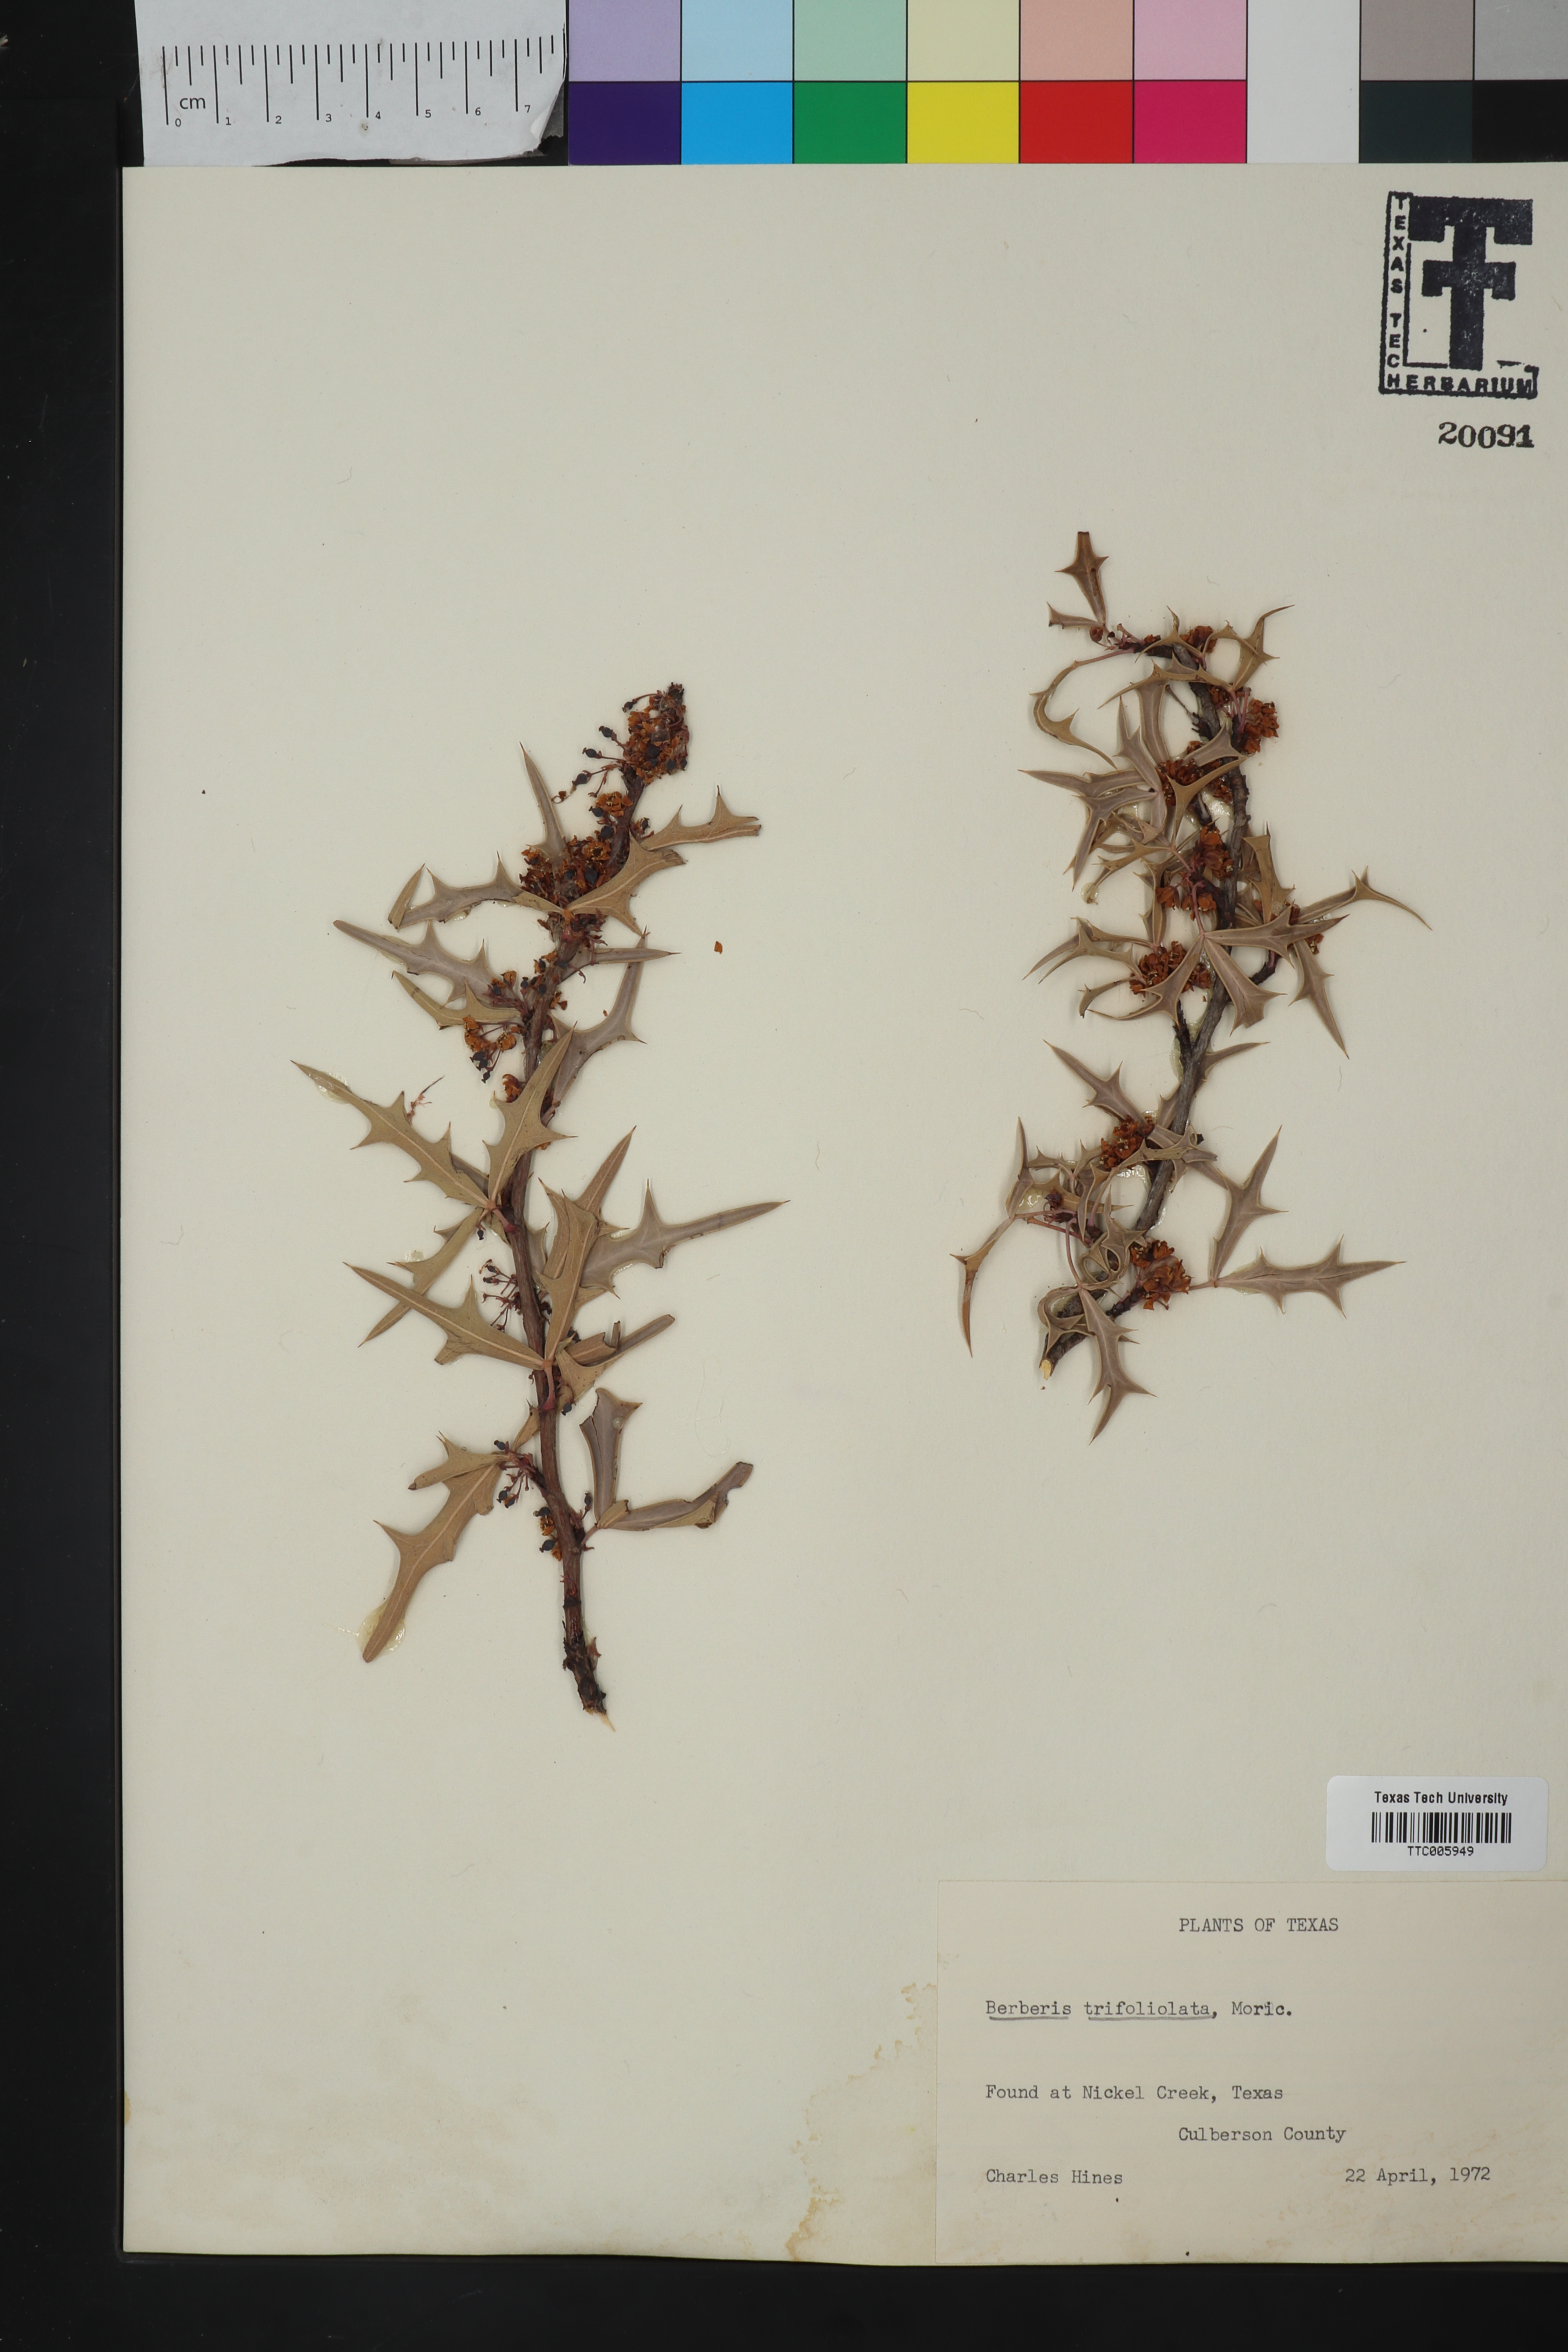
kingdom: Plantae
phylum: Tracheophyta
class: Magnoliopsida
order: Ranunculales
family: Berberidaceae
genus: Alloberberis
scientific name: Alloberberis trifoliolata
